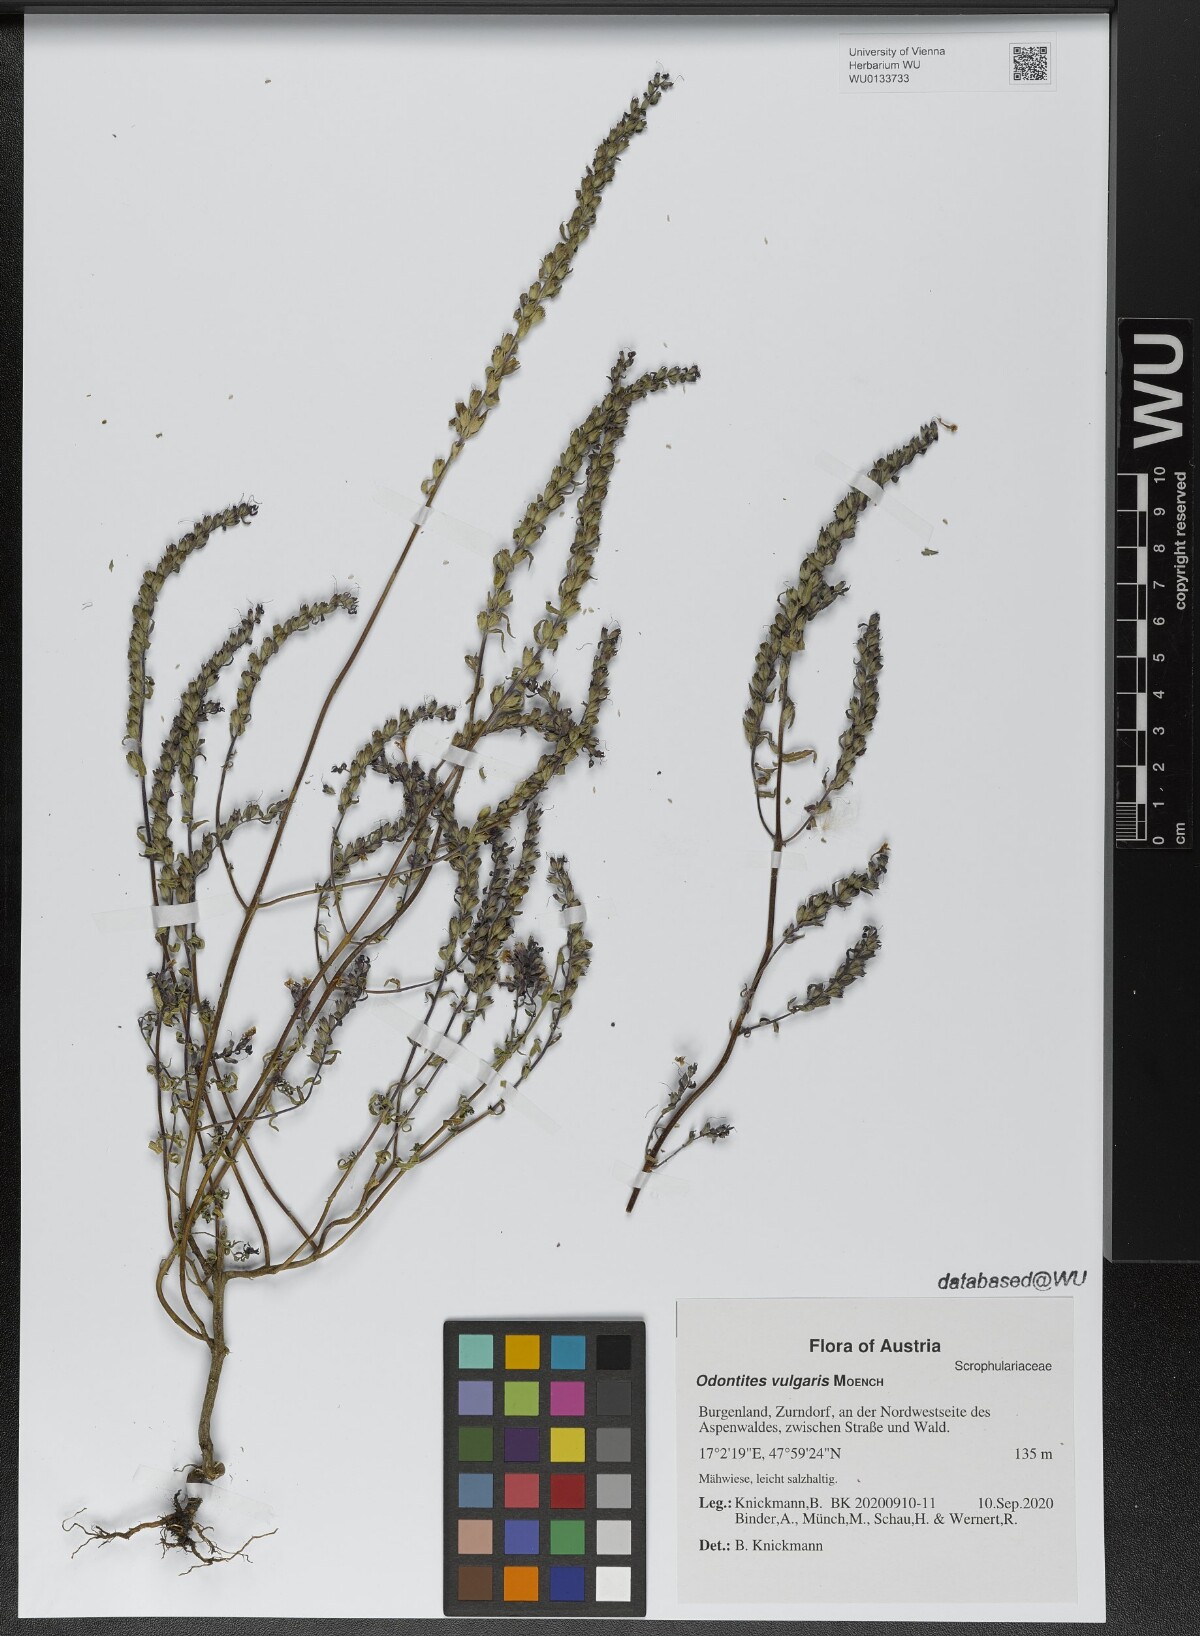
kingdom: Plantae
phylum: Tracheophyta
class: Magnoliopsida
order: Lamiales
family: Orobanchaceae
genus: Odontites
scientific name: Odontites vulgaris
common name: Broomrape
